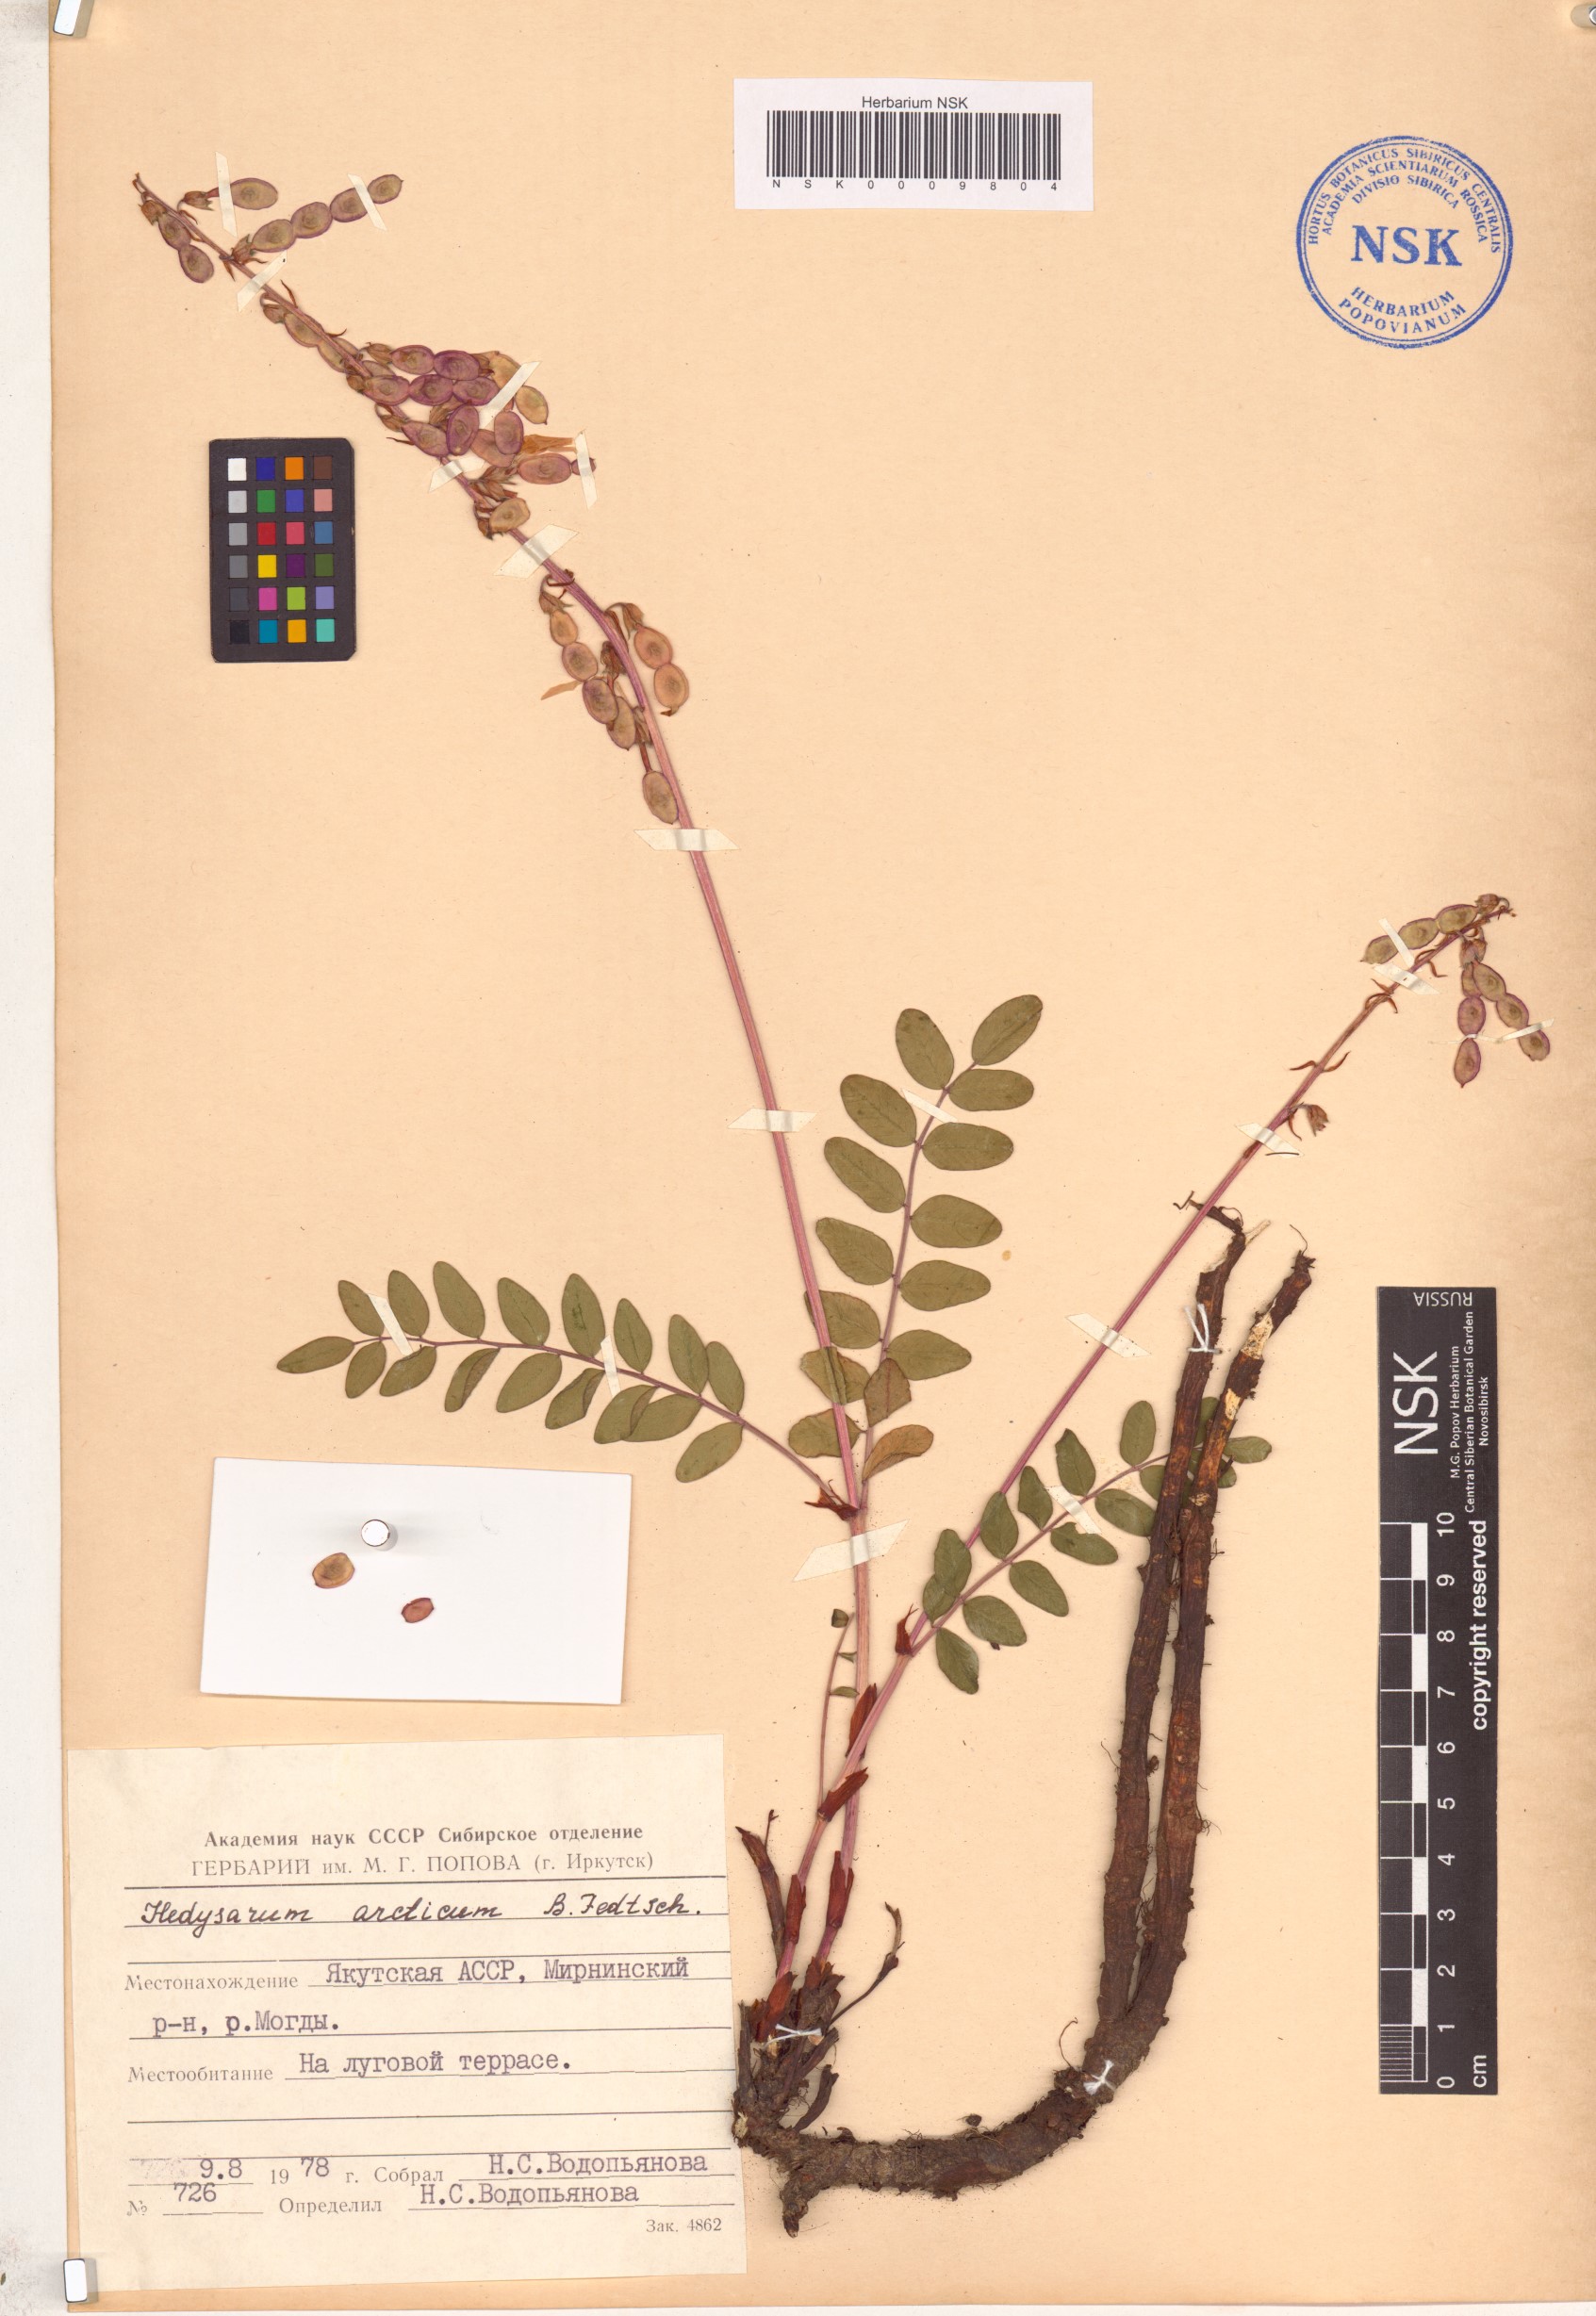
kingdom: Plantae
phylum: Tracheophyta
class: Magnoliopsida
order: Fabales
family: Fabaceae
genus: Hedysarum
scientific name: Hedysarum hedysaroides
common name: Alpine french-honeysuckle
